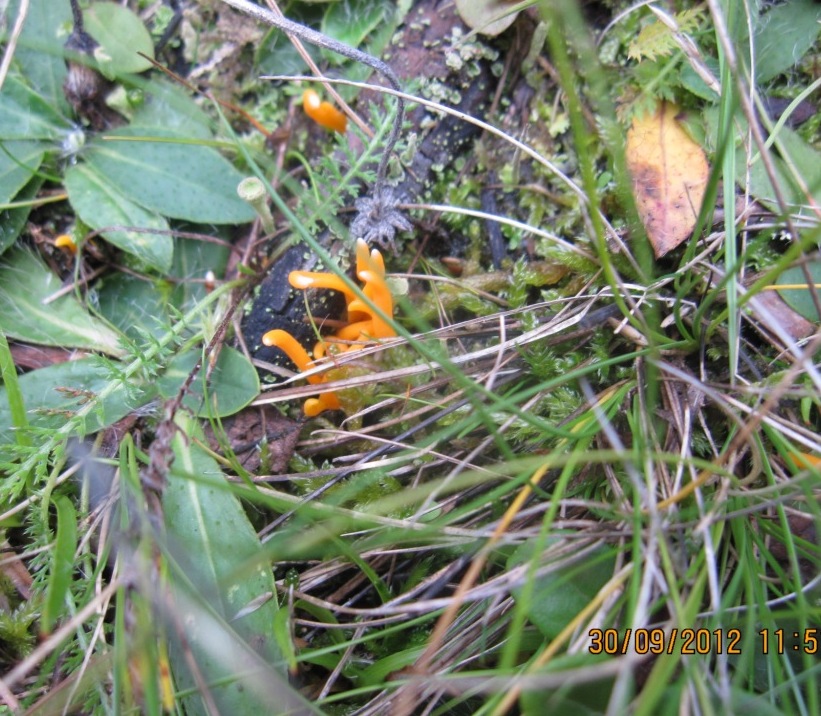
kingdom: Fungi
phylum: Basidiomycota
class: Agaricomycetes
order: Agaricales
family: Clavariaceae
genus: Clavulinopsis
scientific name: Clavulinopsis luteoalba
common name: abrikos-køllesvamp
